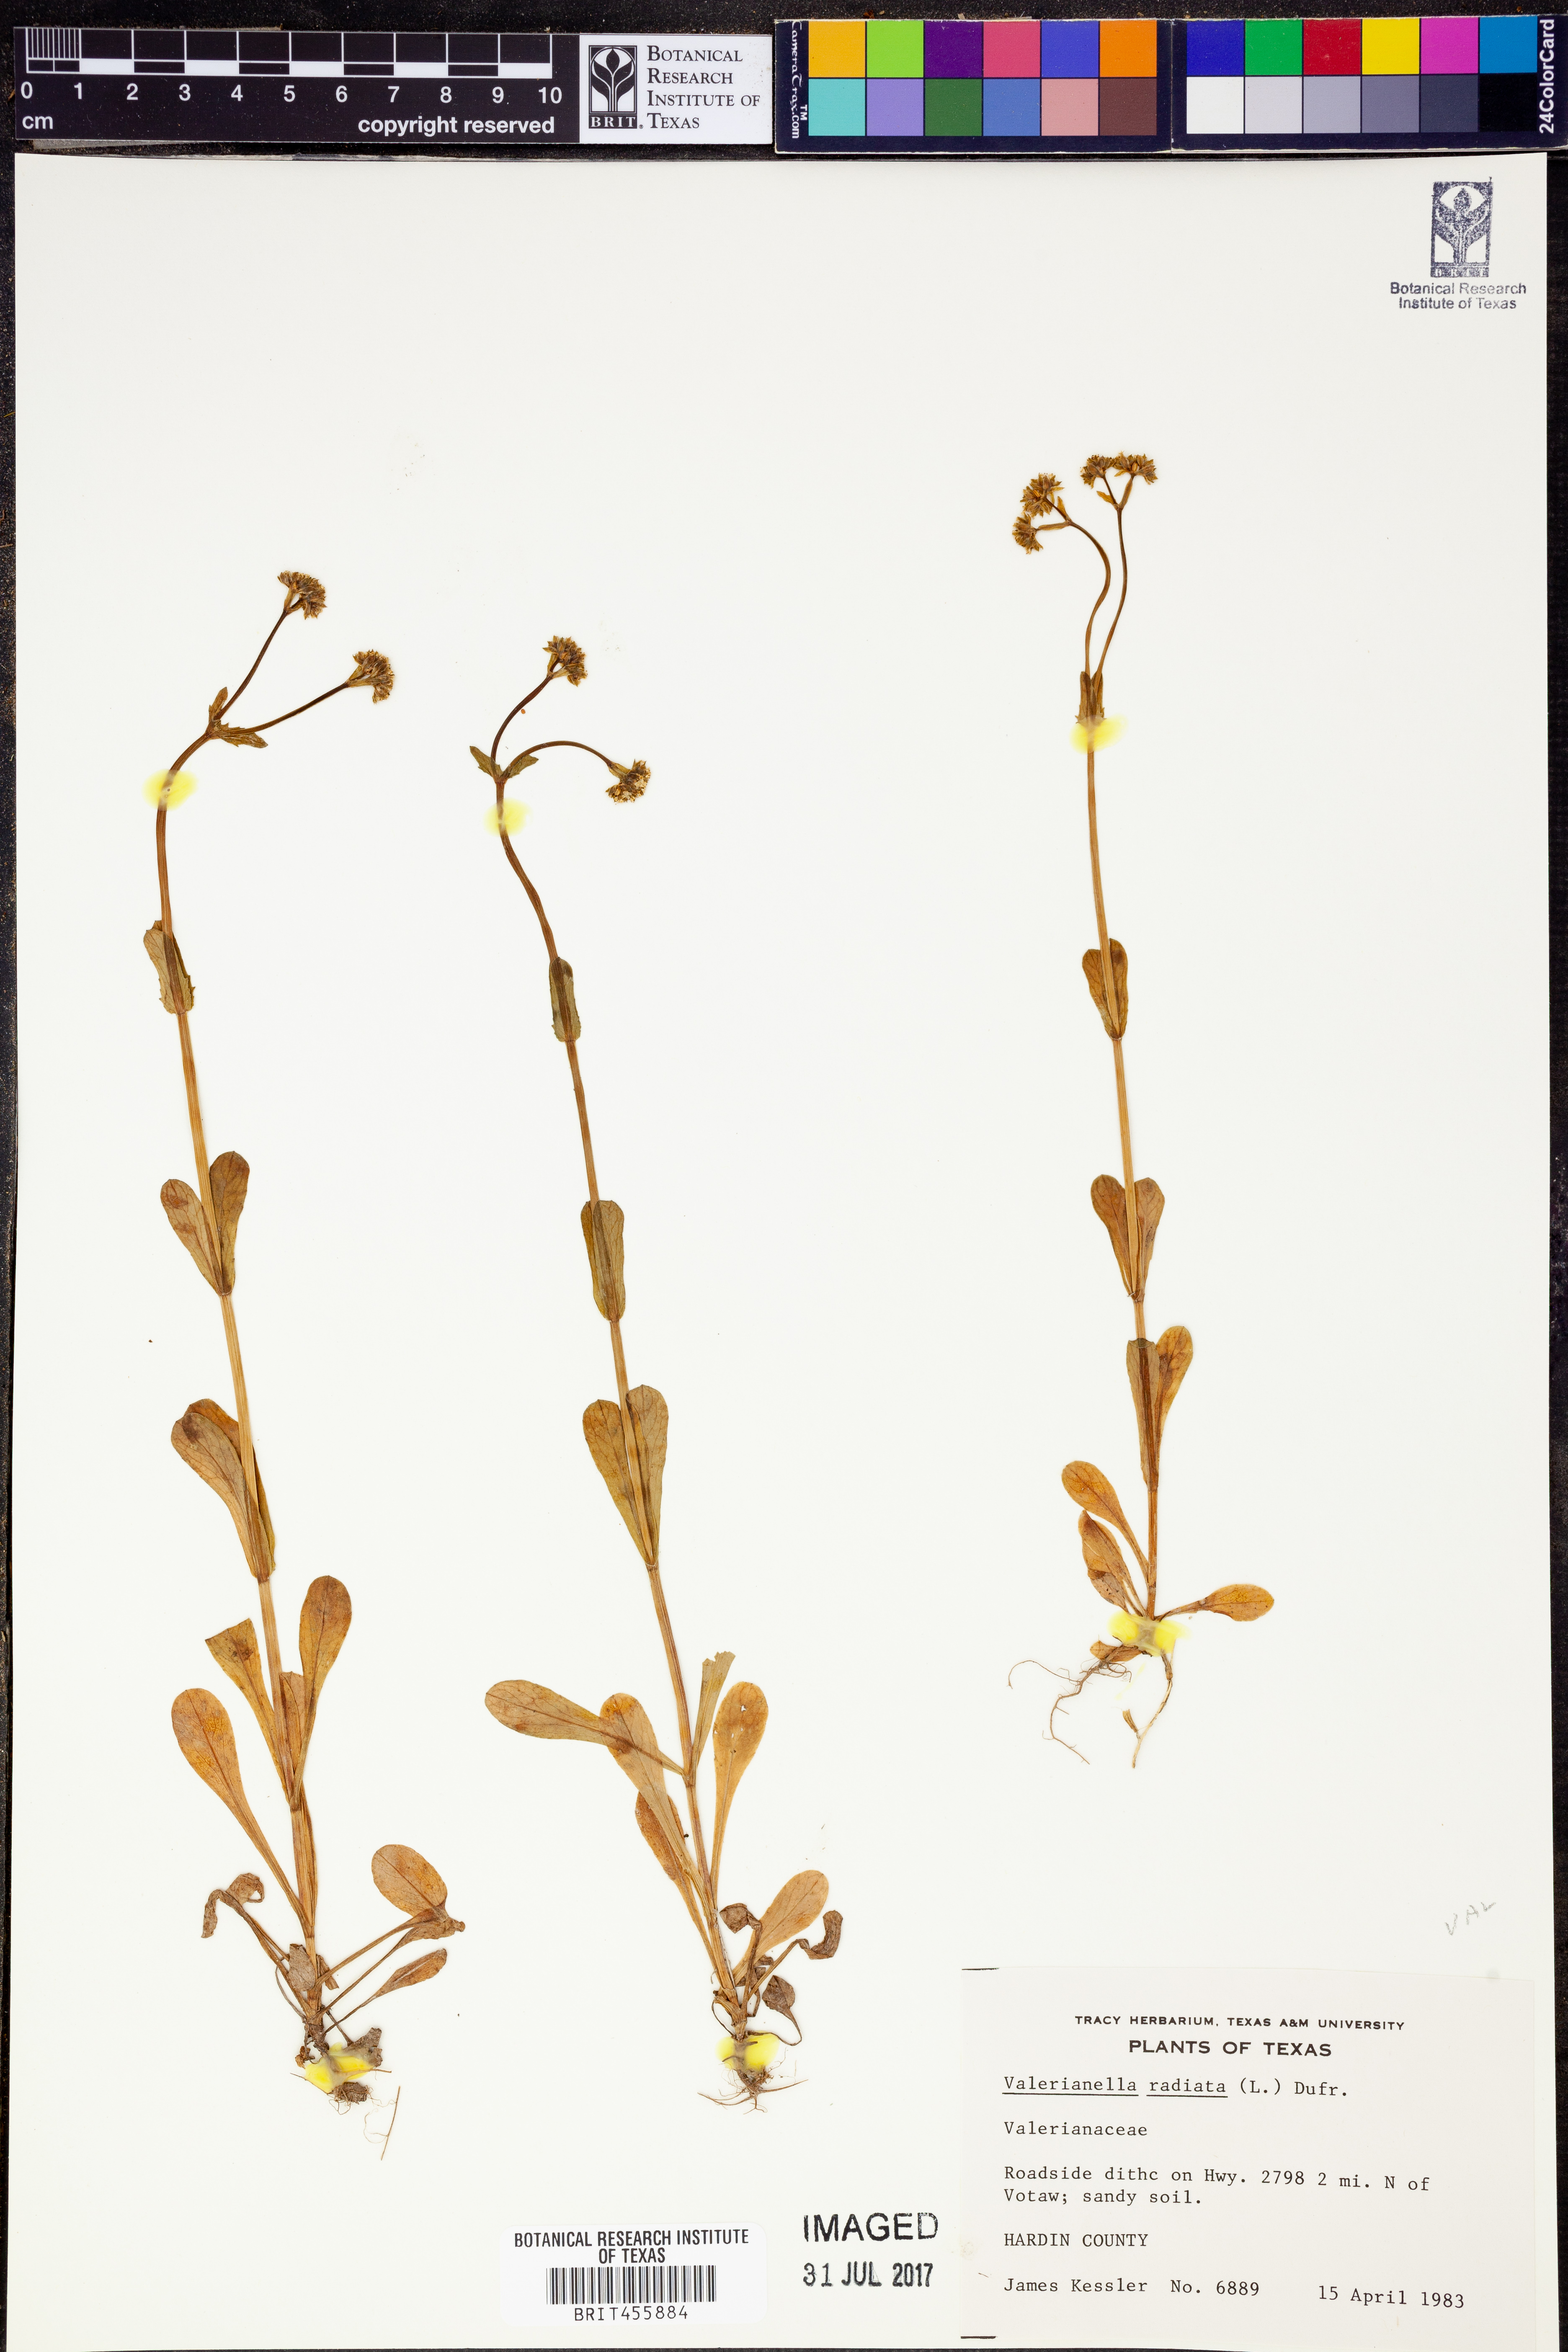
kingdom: Plantae
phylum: Tracheophyta
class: Magnoliopsida
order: Dipsacales
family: Caprifoliaceae
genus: Valerianella
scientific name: Valerianella radiata
